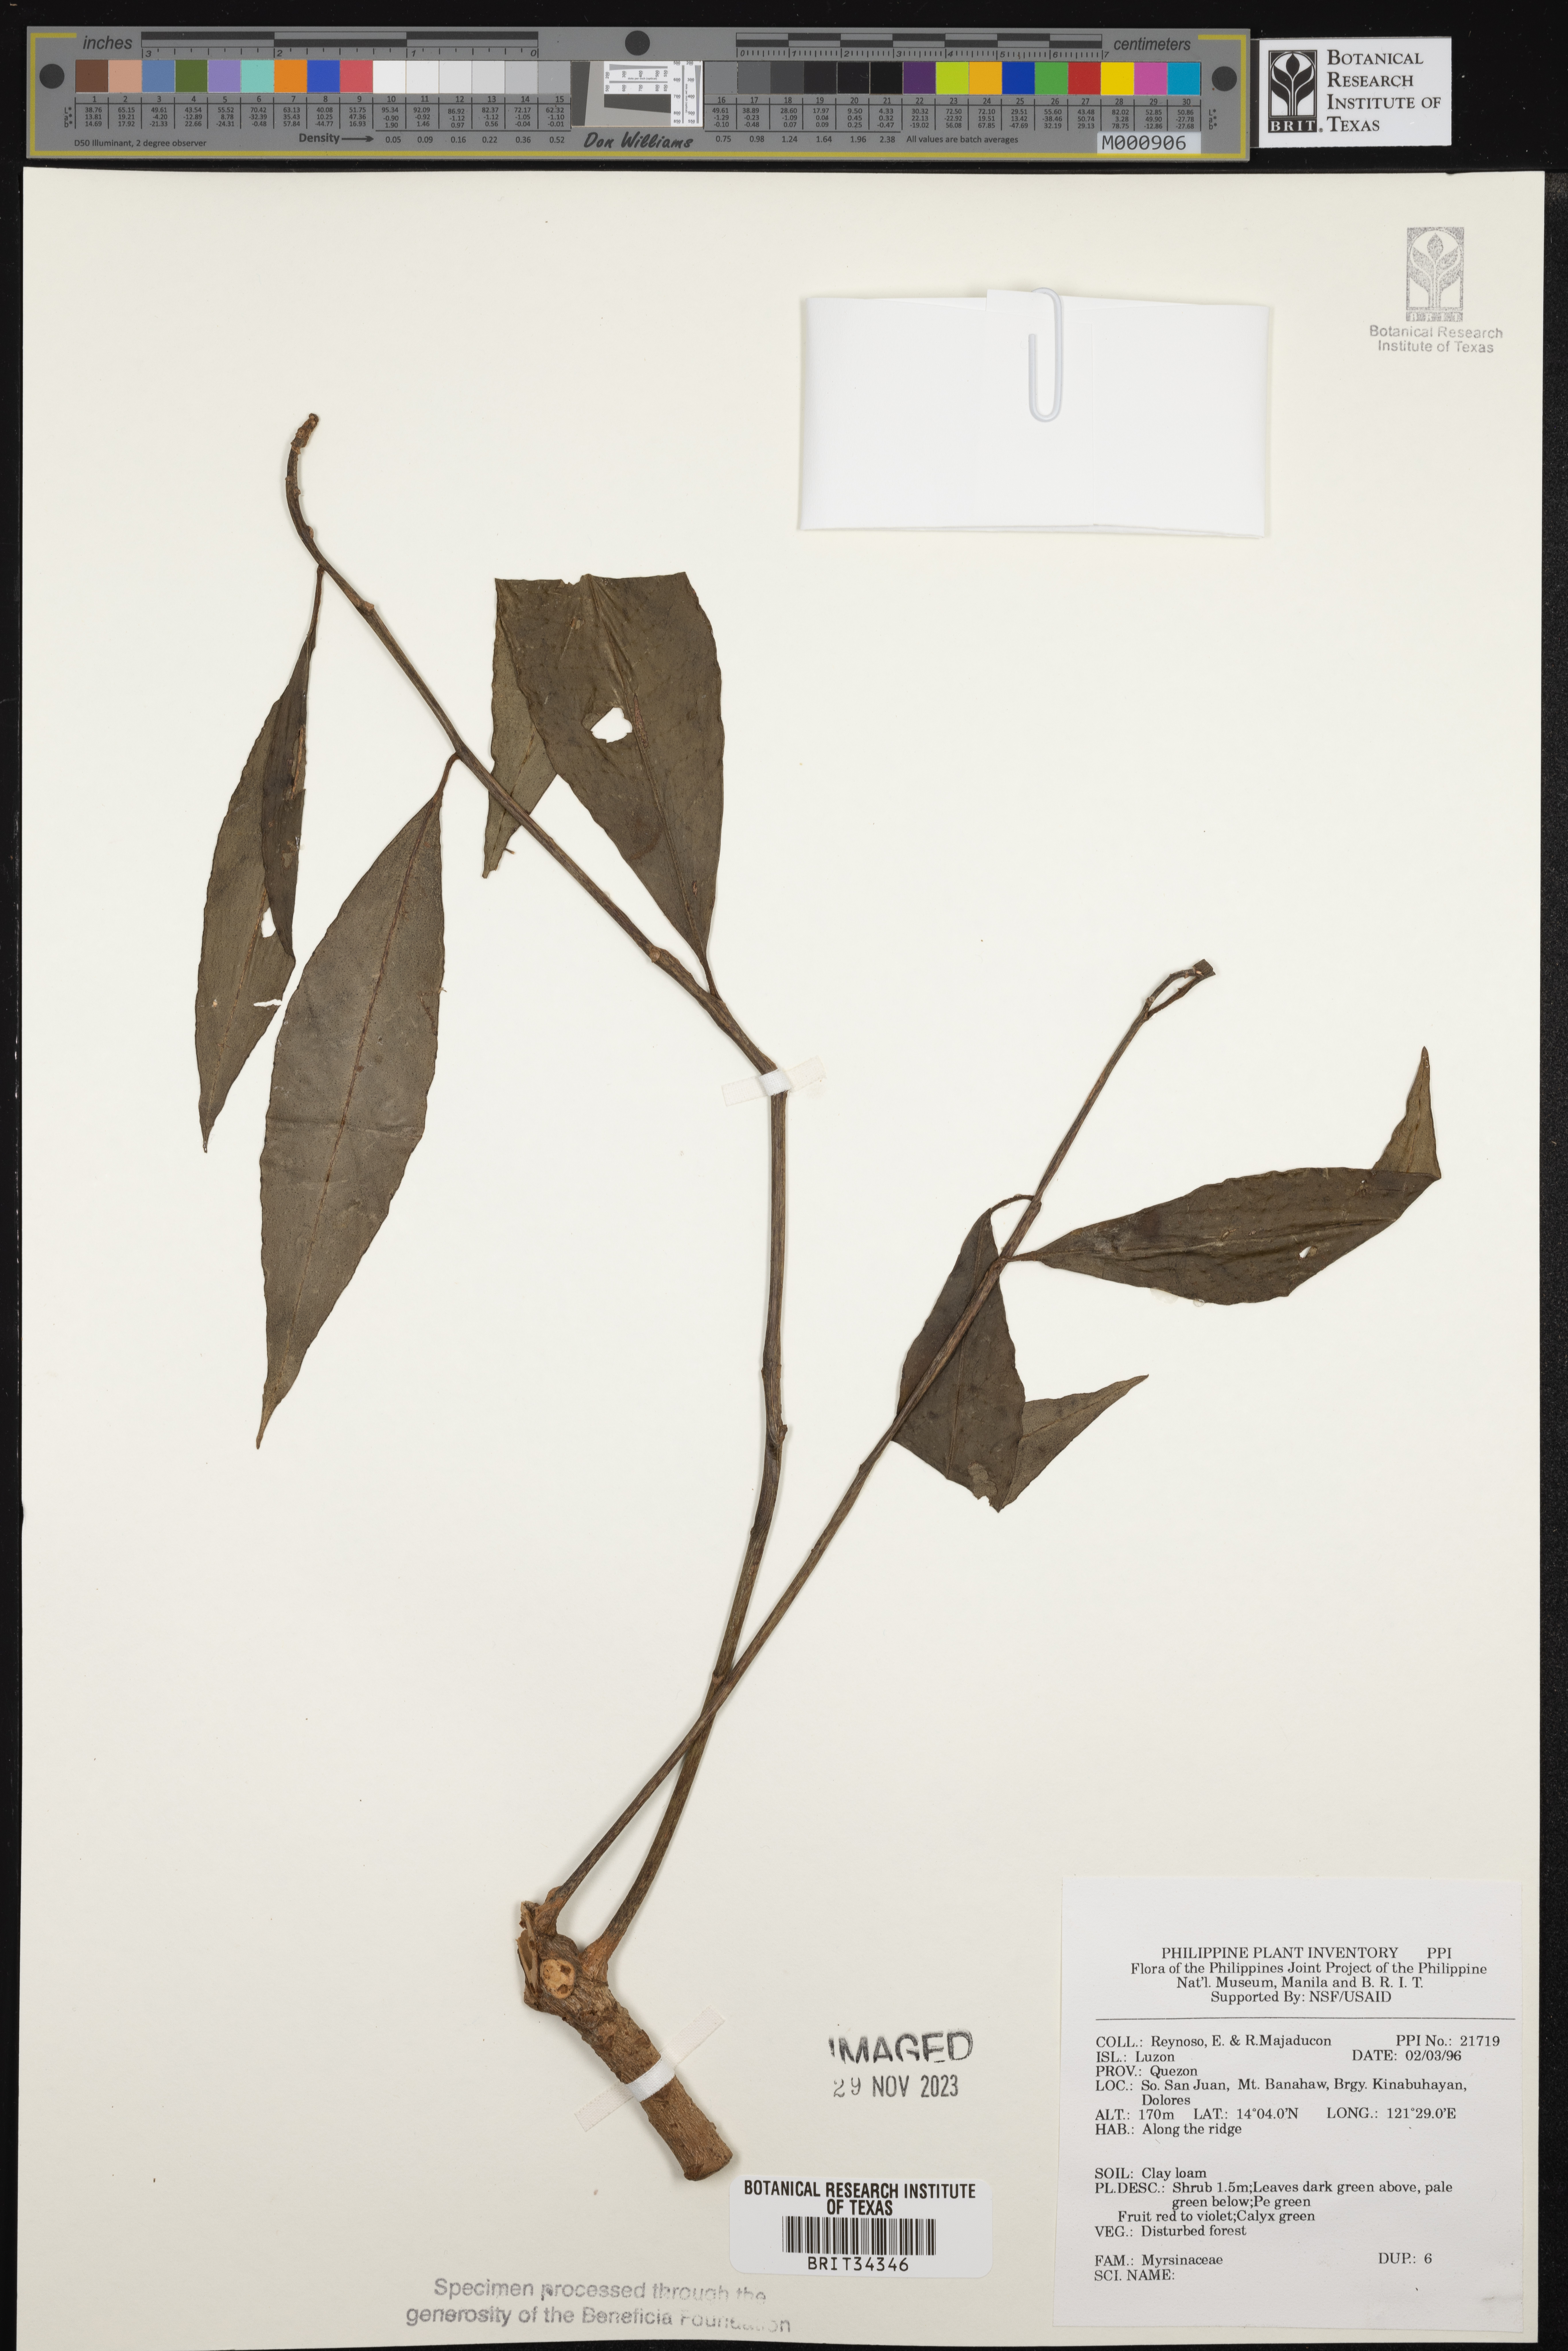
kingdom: Plantae
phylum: Tracheophyta
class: Magnoliopsida
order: Ericales
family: Primulaceae
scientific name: Primulaceae
